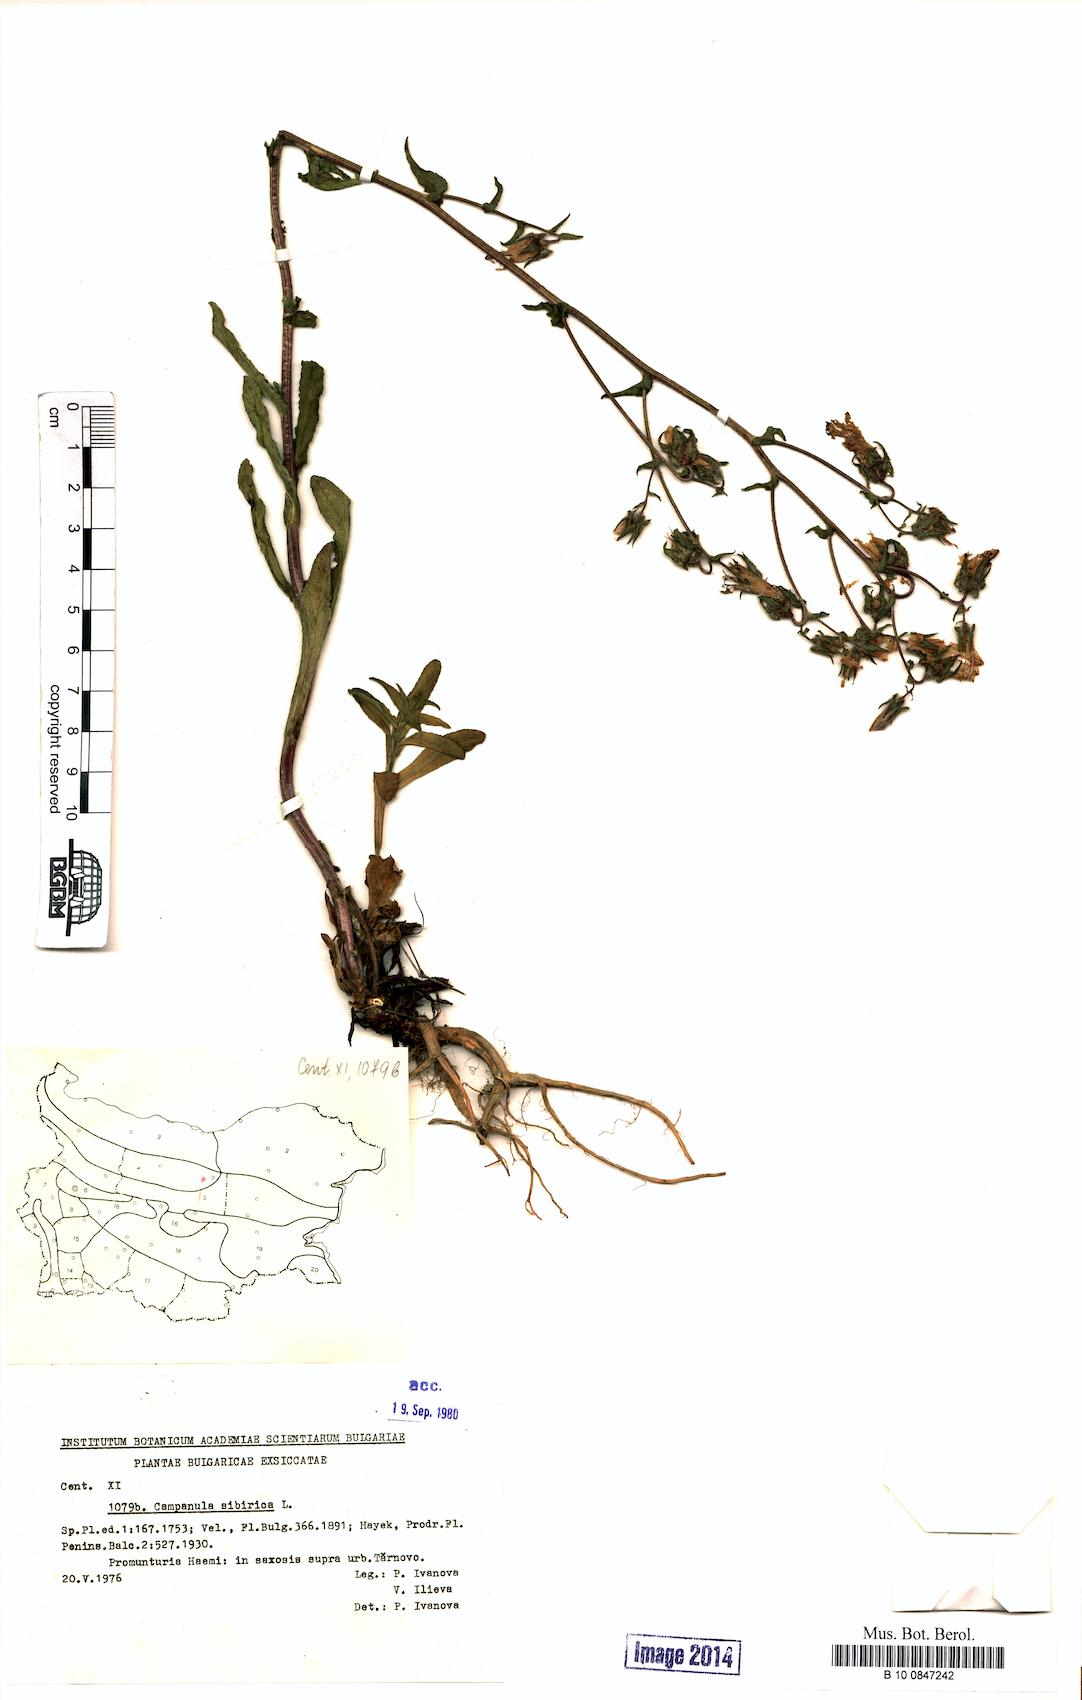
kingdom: Plantae
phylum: Tracheophyta
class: Magnoliopsida
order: Asterales
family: Campanulaceae
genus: Campanula
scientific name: Campanula sibirica
